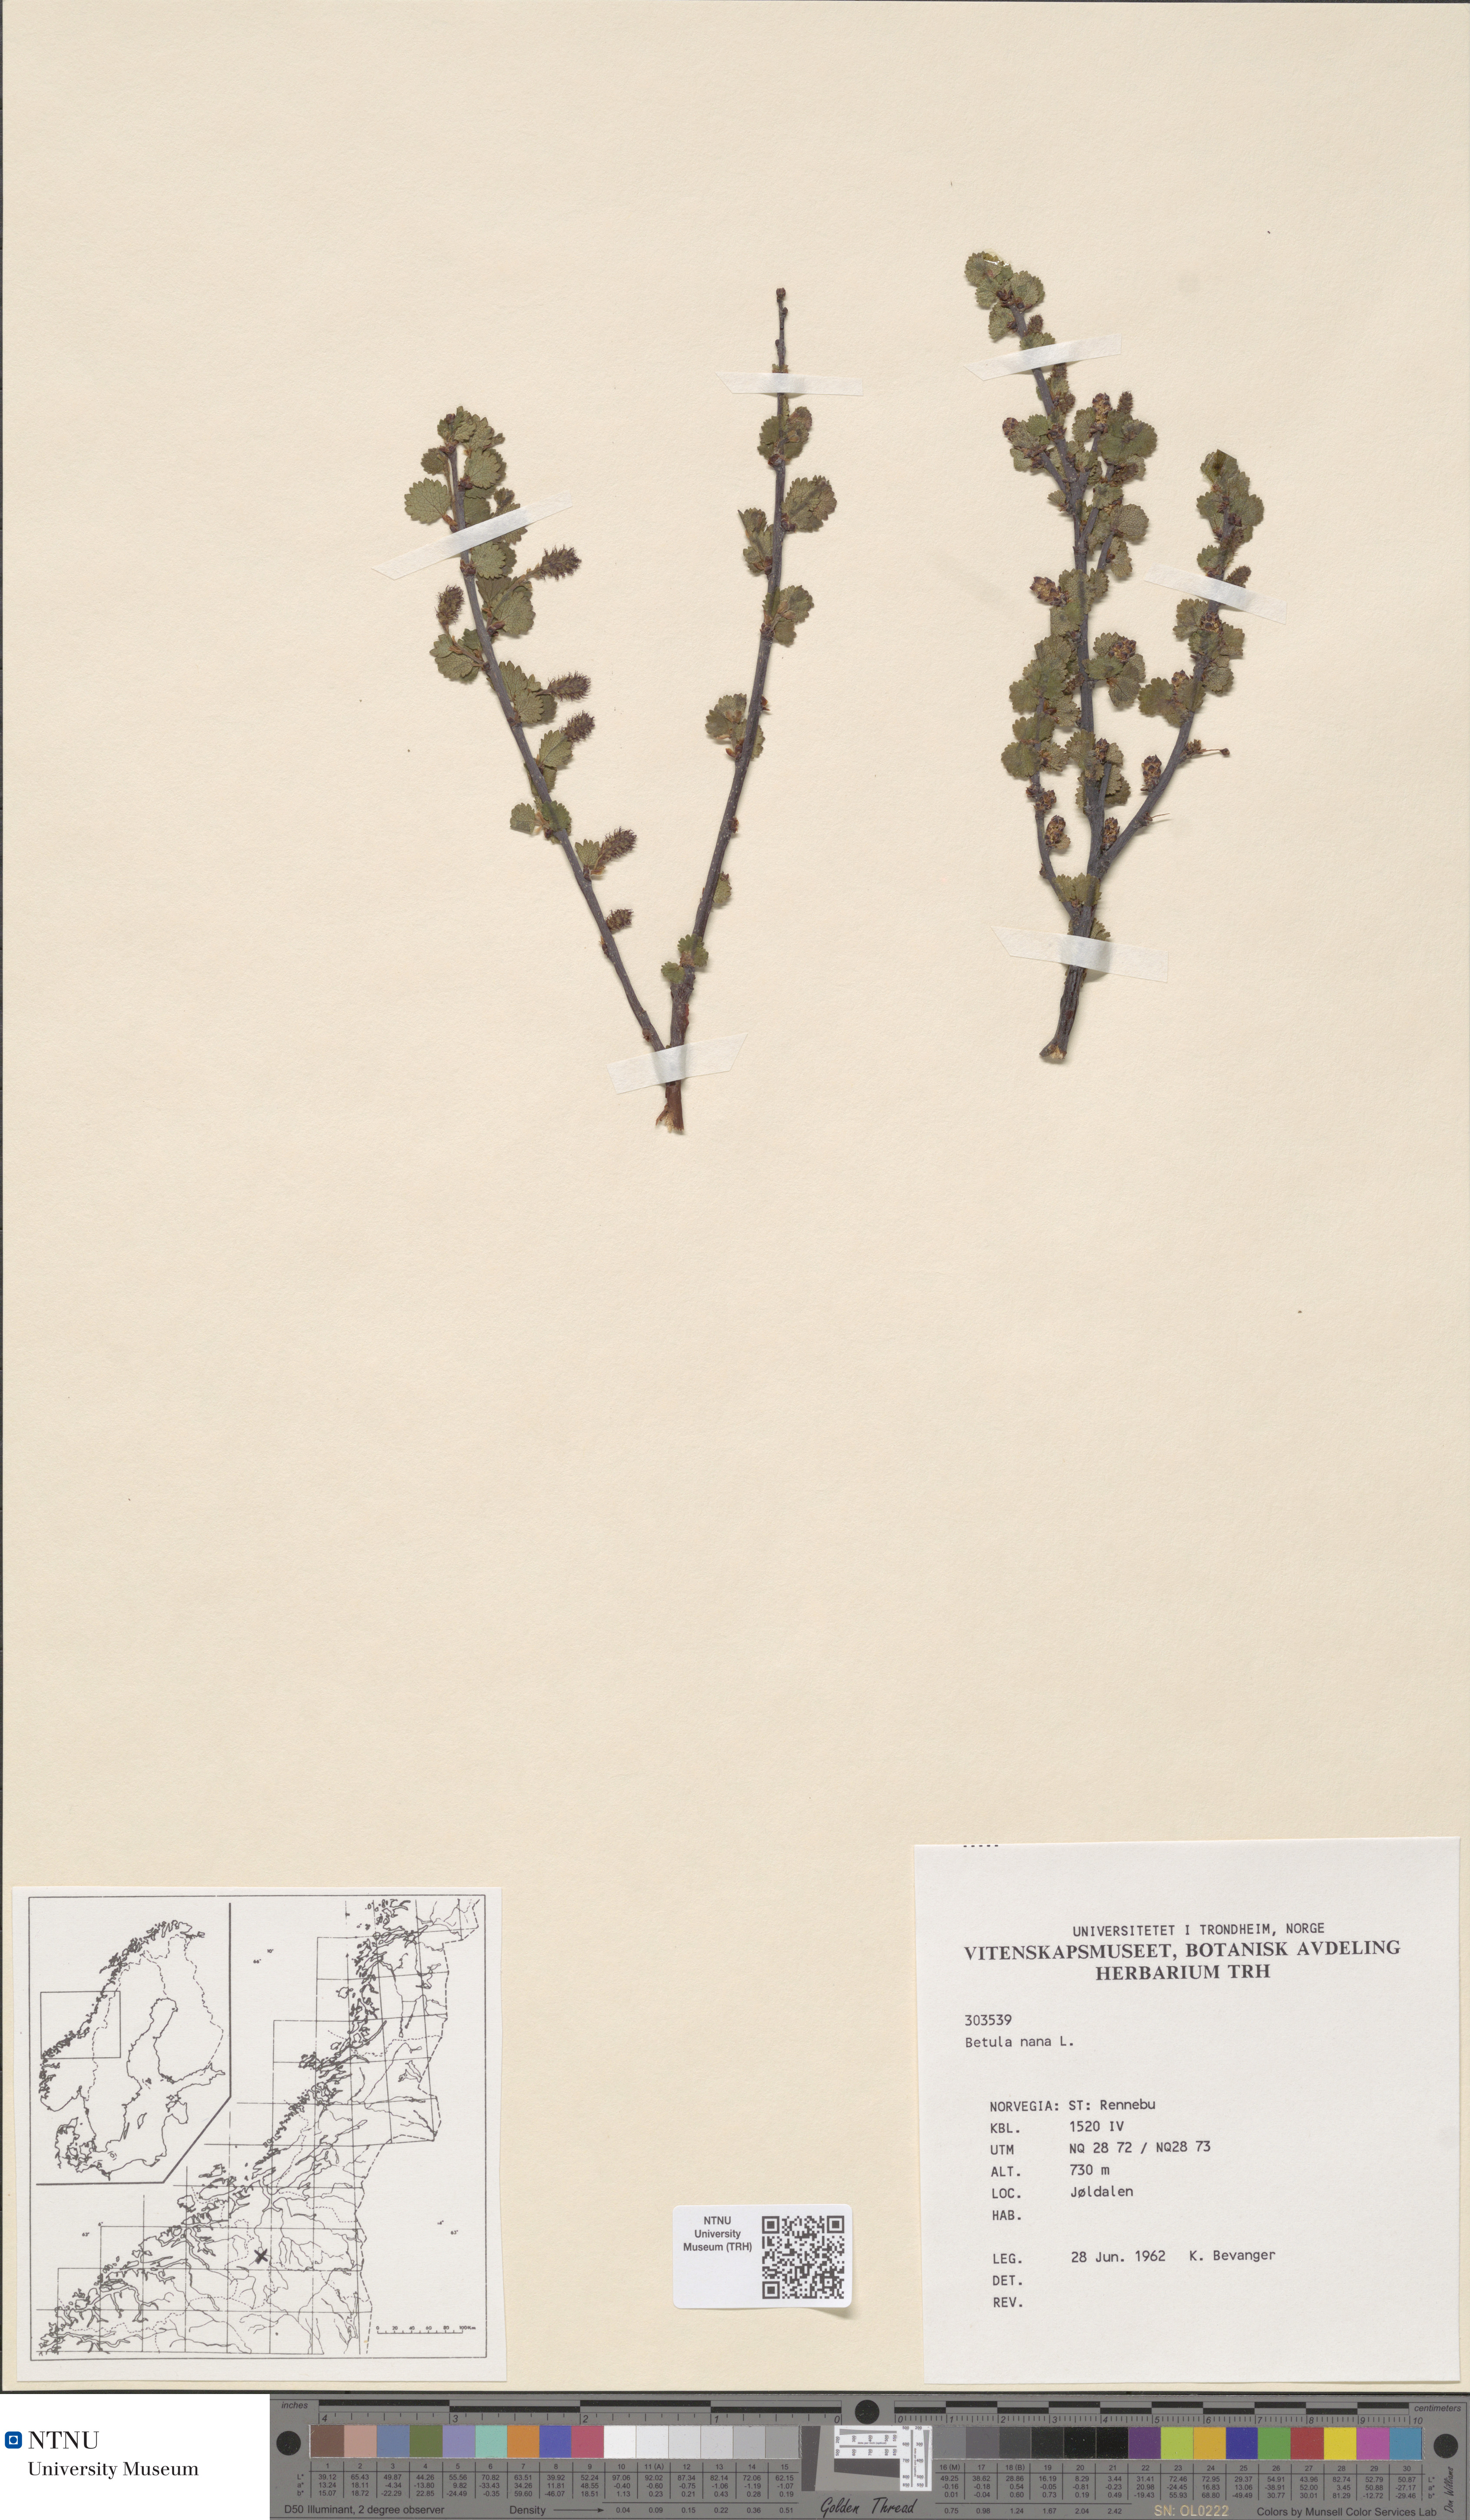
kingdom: Plantae
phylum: Tracheophyta
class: Magnoliopsida
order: Fagales
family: Betulaceae
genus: Betula
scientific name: Betula nana
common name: Arctic dwarf birch
